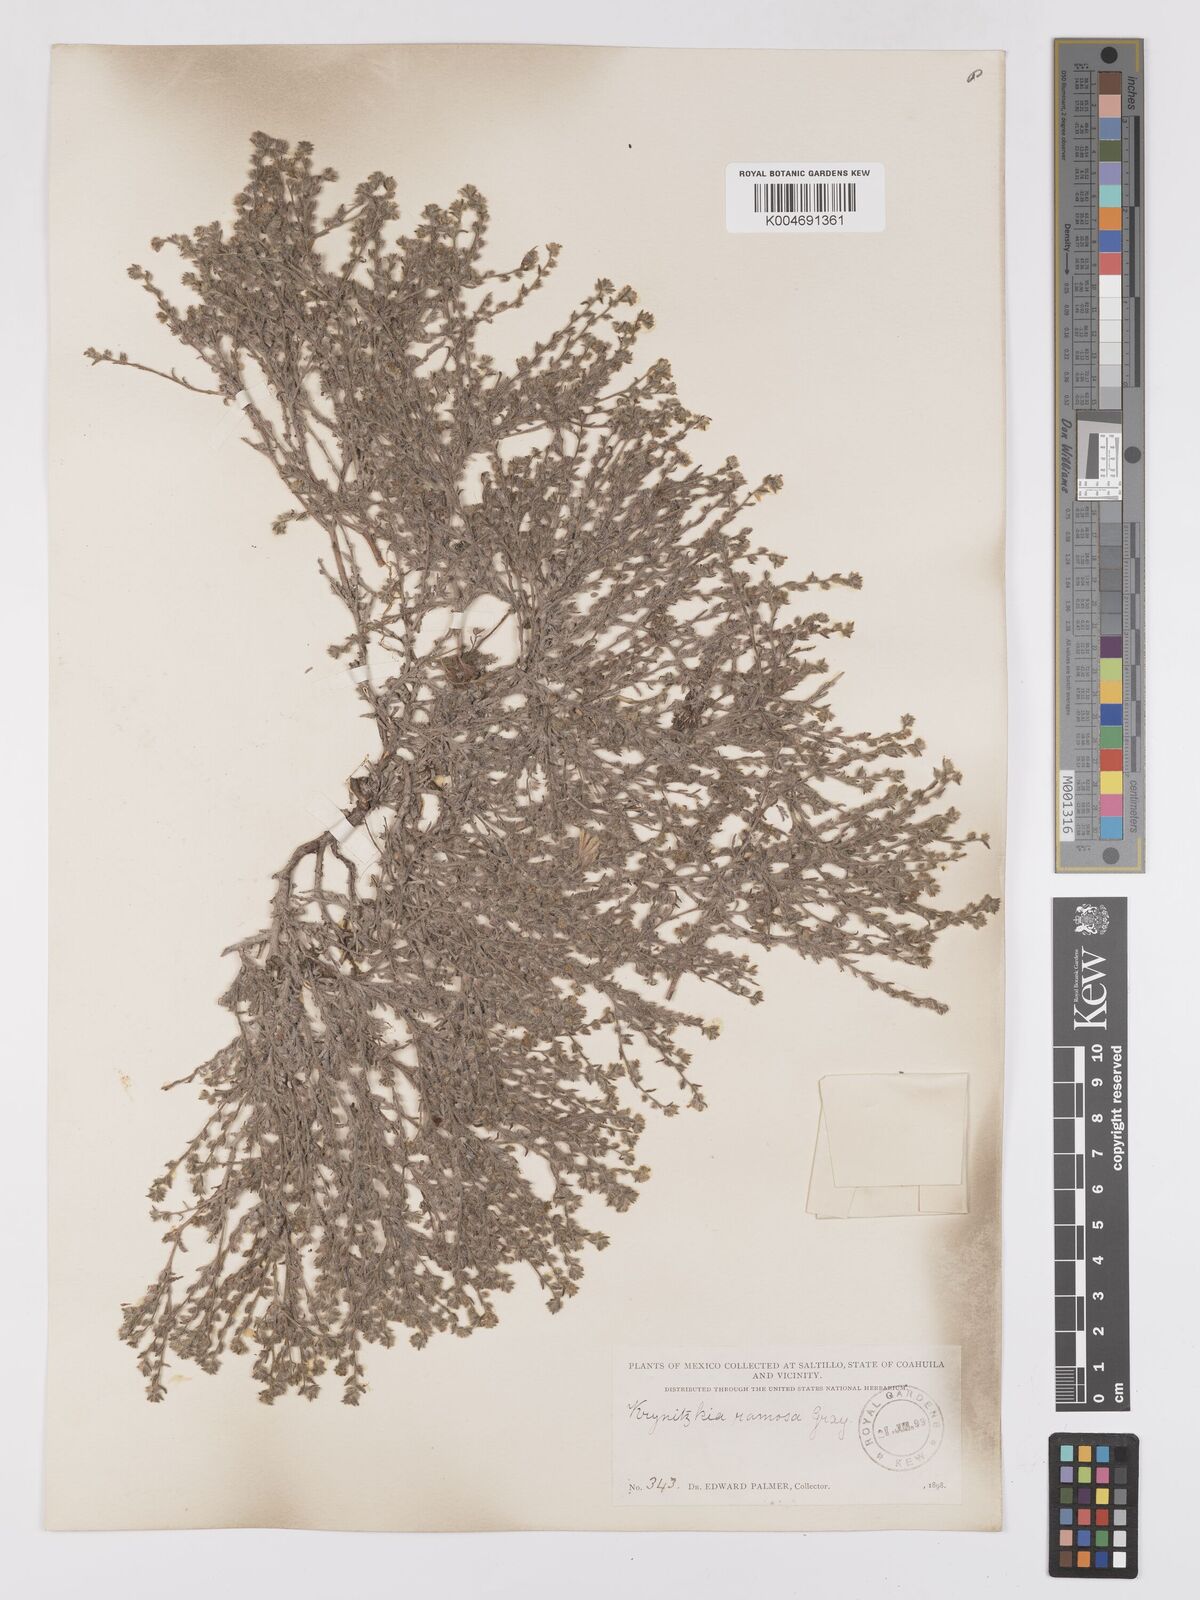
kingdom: Plantae
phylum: Tracheophyta
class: Magnoliopsida
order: Boraginales
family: Boraginaceae
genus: Johnstonella
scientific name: Johnstonella albida
